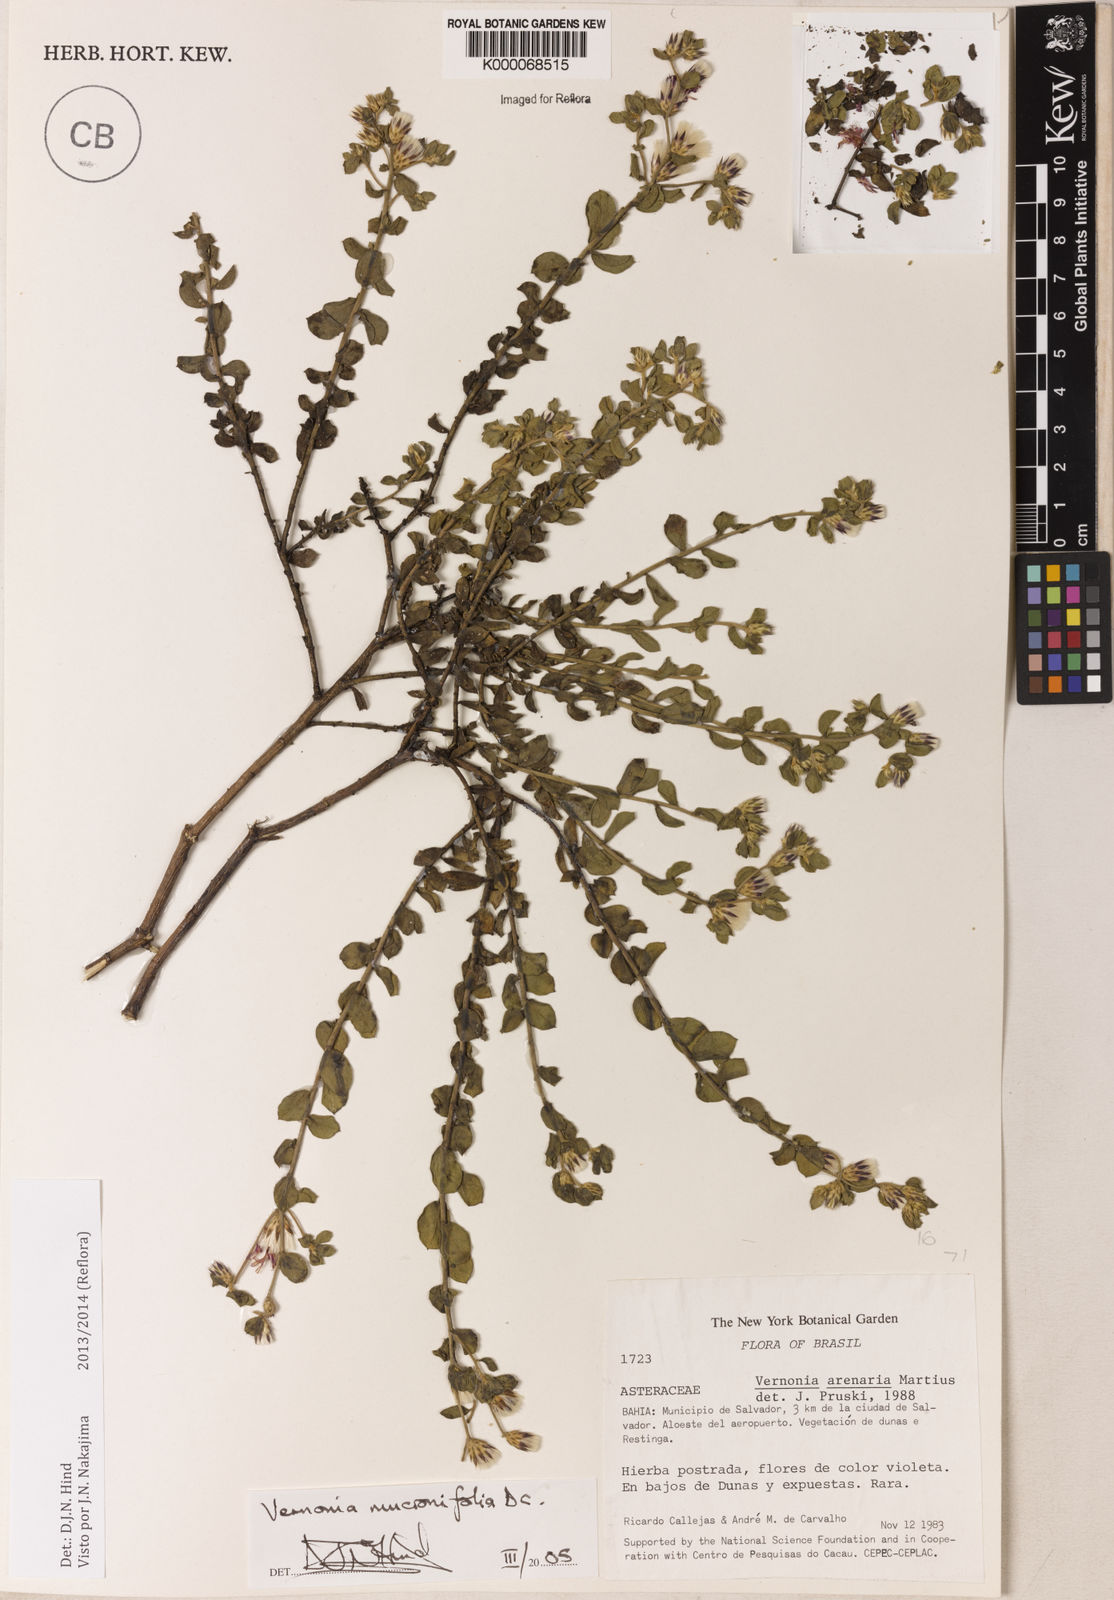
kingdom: Plantae
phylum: Tracheophyta
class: Magnoliopsida
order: Asterales
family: Asteraceae
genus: Lepidaploa
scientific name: Lepidaploa mucronifolia
